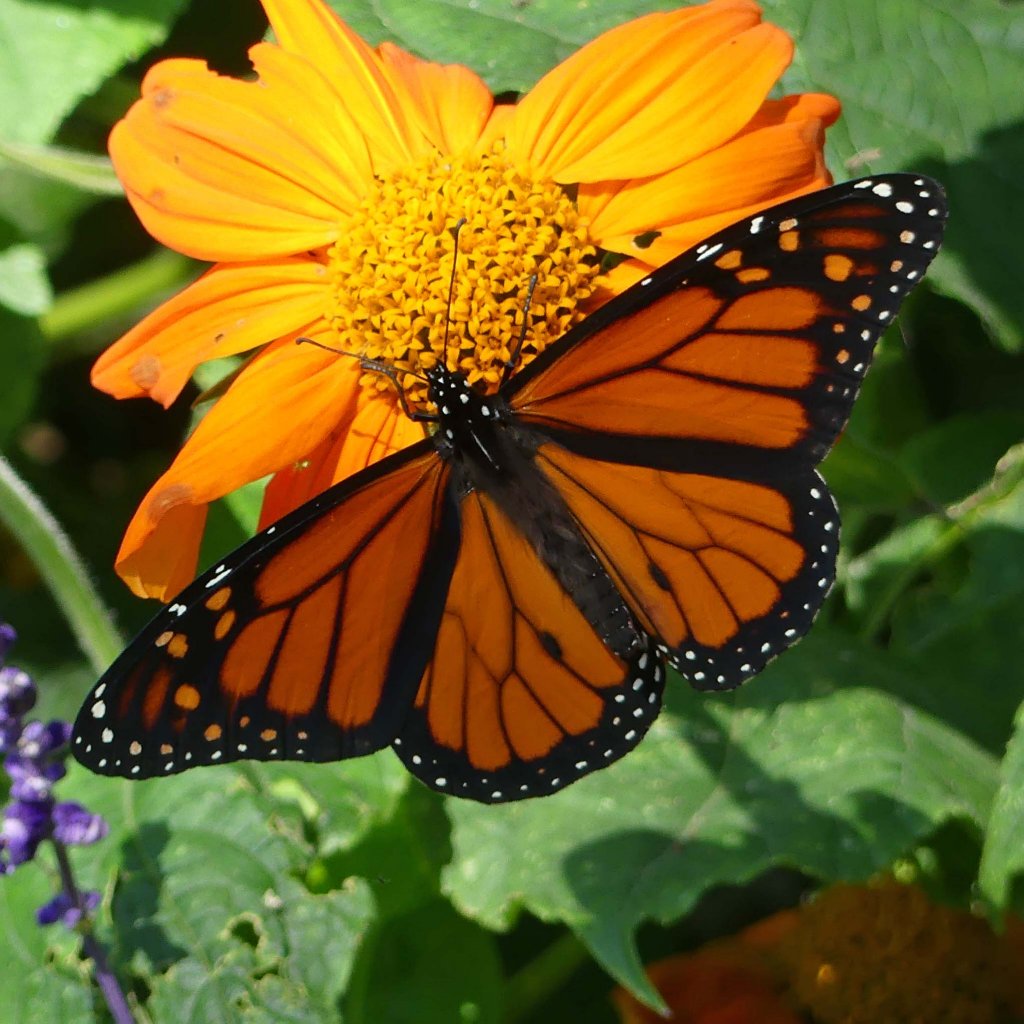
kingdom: Animalia
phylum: Arthropoda
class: Insecta
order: Lepidoptera
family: Nymphalidae
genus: Danaus
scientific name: Danaus plexippus
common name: Monarch
